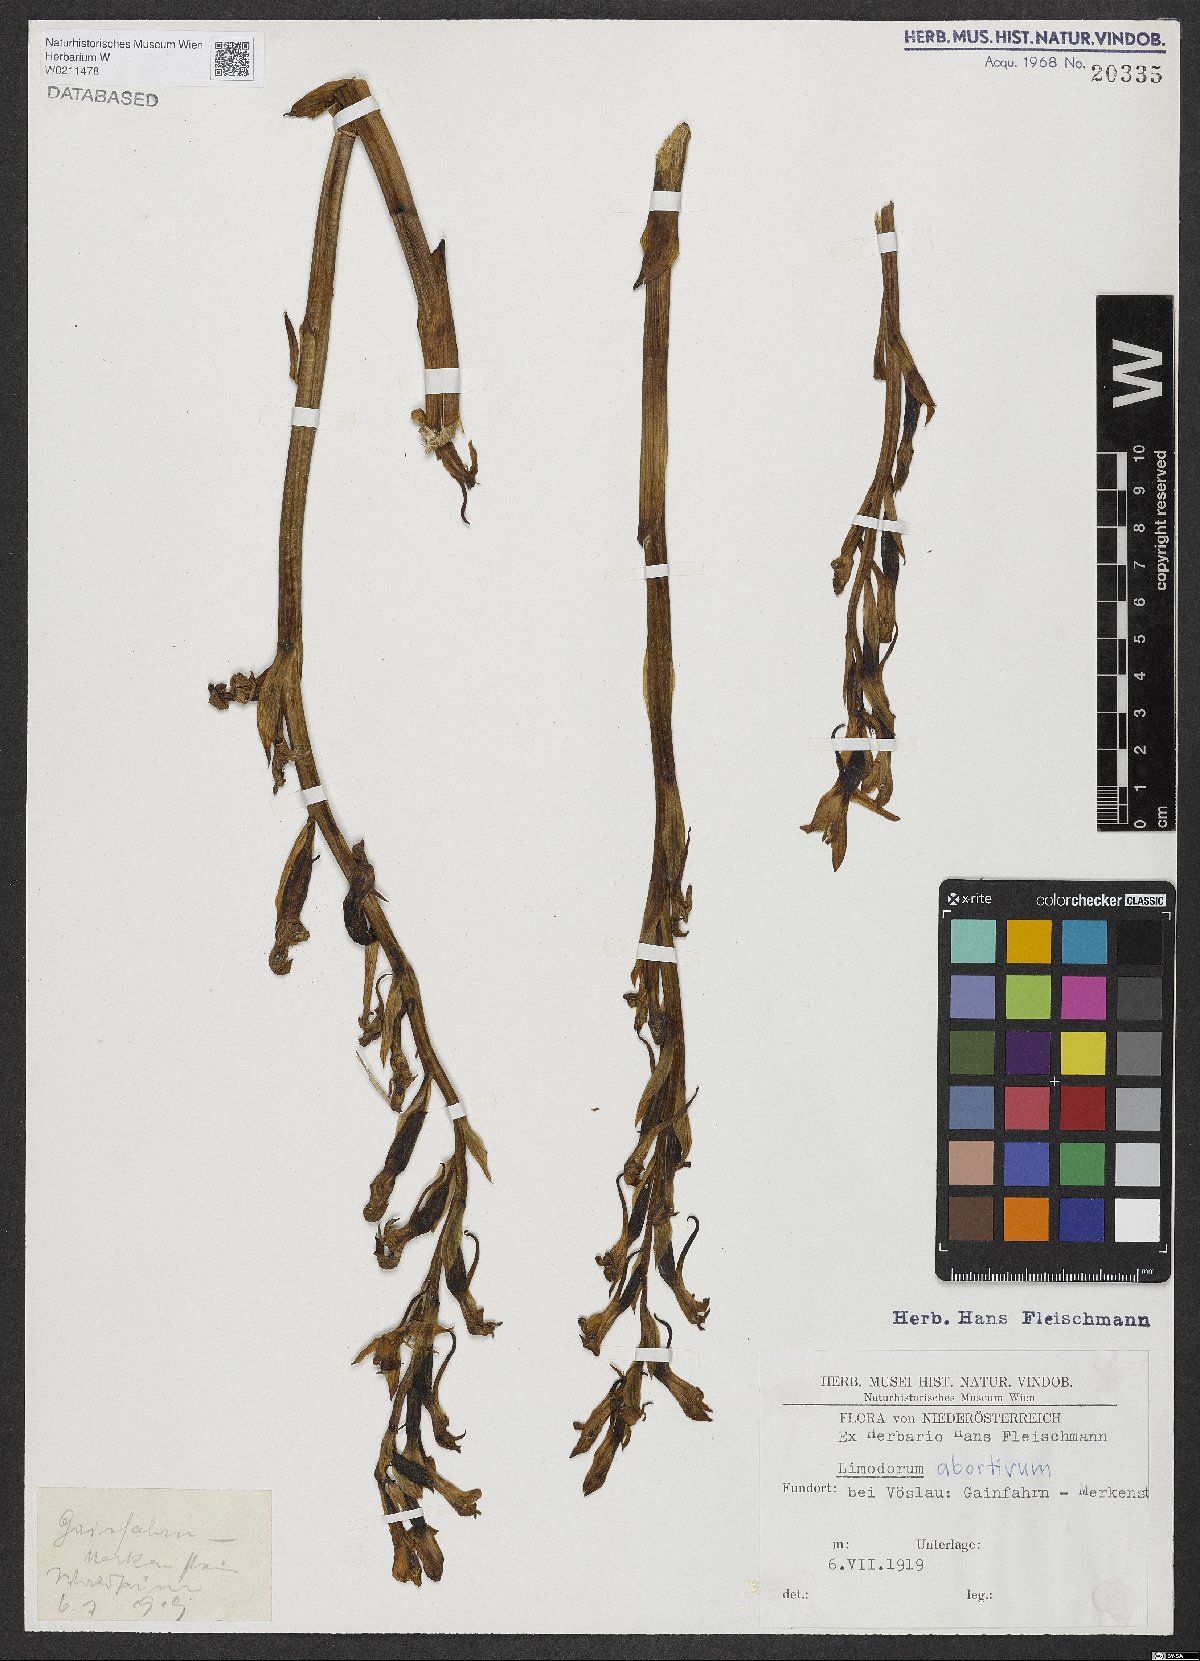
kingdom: Plantae
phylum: Tracheophyta
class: Liliopsida
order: Asparagales
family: Orchidaceae
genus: Limodorum
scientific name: Limodorum abortivum
